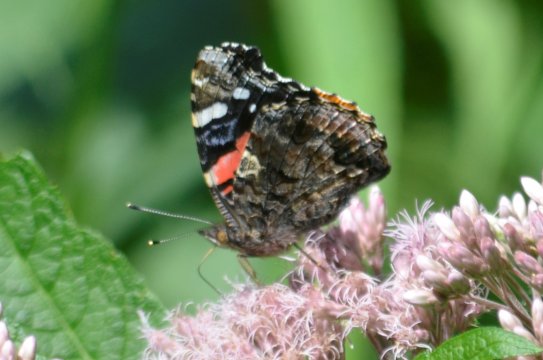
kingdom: Animalia
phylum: Arthropoda
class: Insecta
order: Lepidoptera
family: Nymphalidae
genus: Vanessa
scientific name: Vanessa atalanta
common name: Red Admiral
